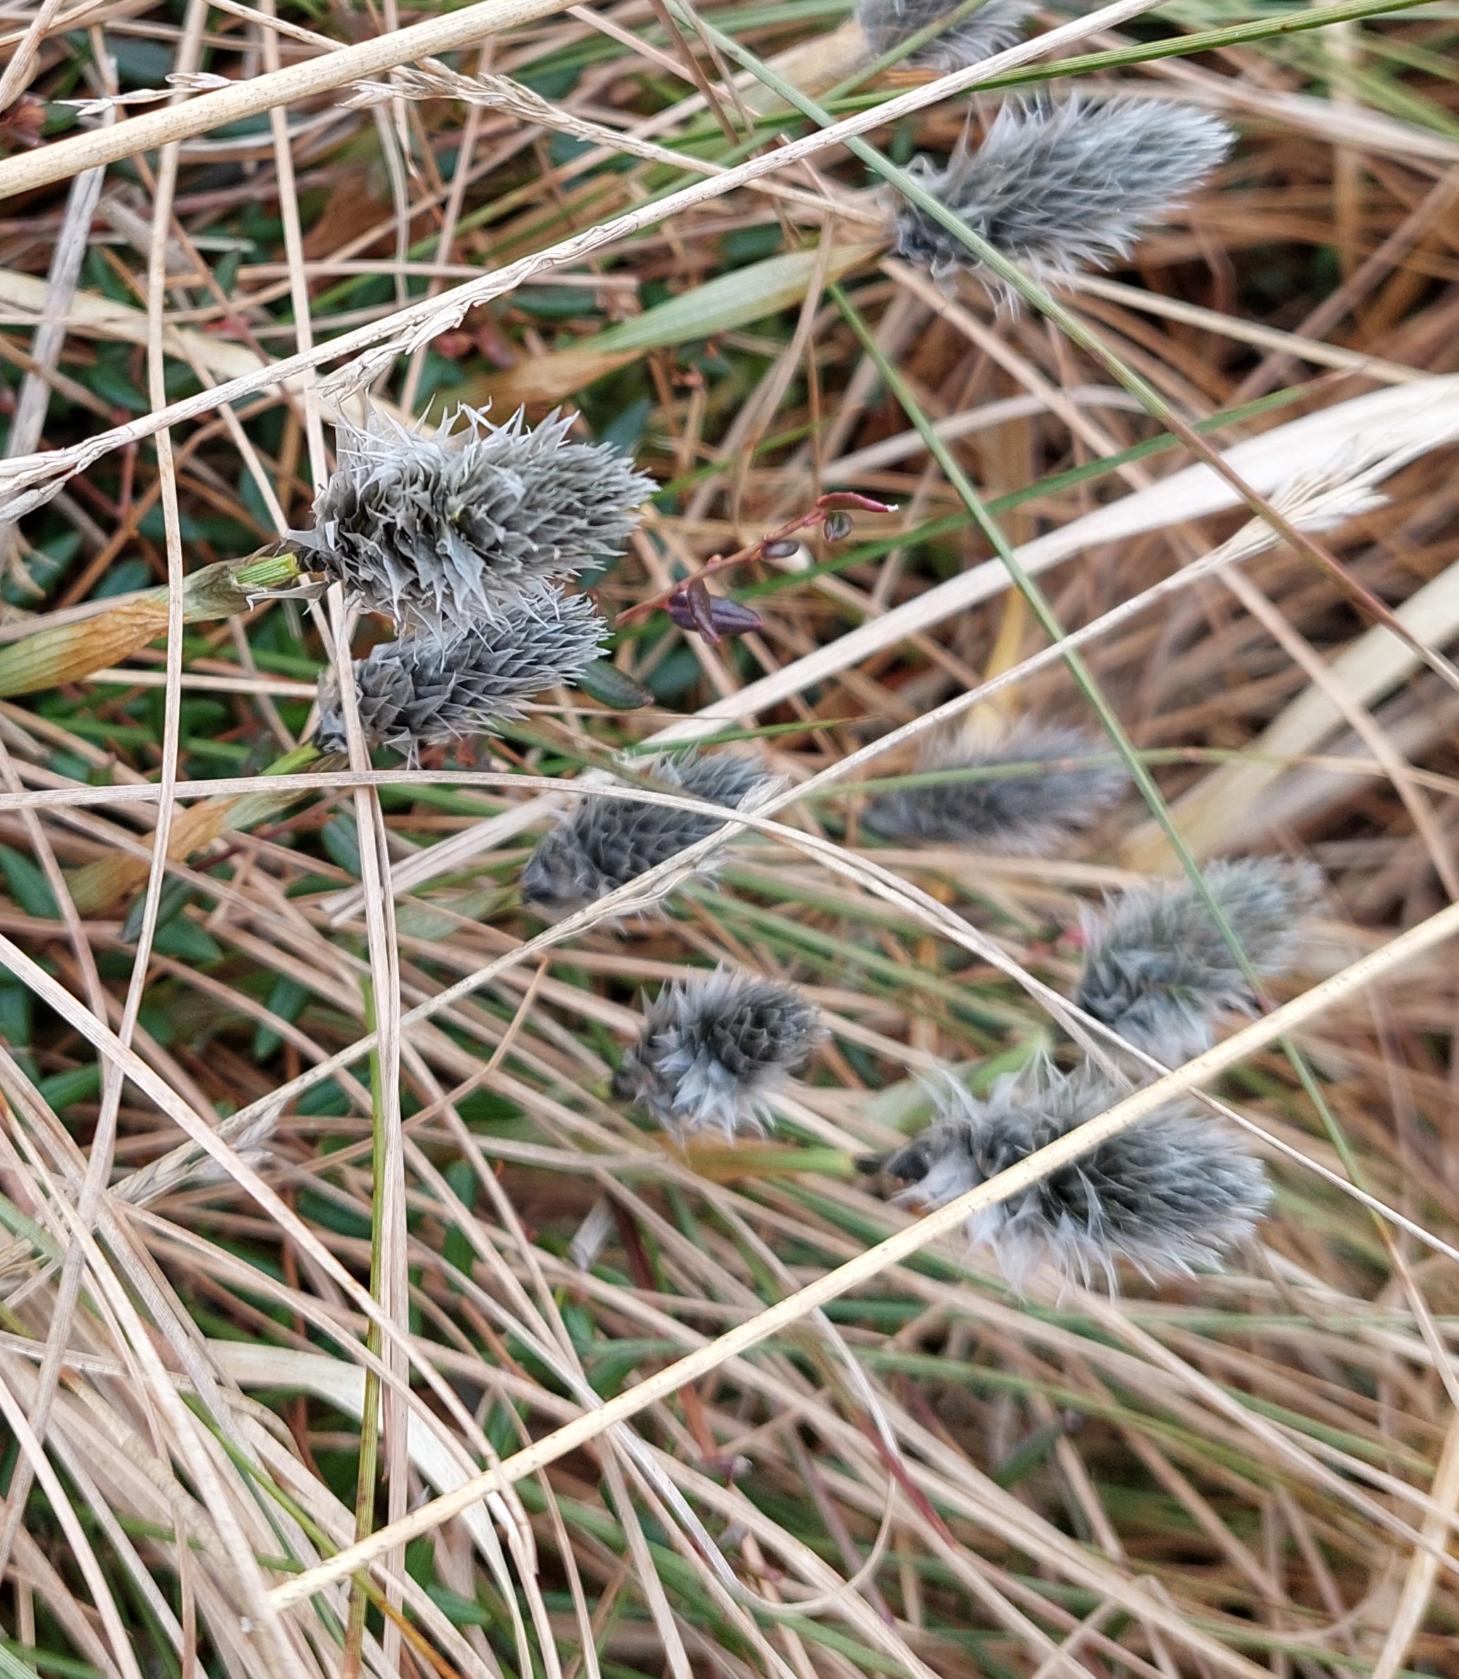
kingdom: Plantae
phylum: Tracheophyta
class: Liliopsida
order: Poales
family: Cyperaceae
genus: Eriophorum
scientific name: Eriophorum vaginatum
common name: Tue-kæruld
